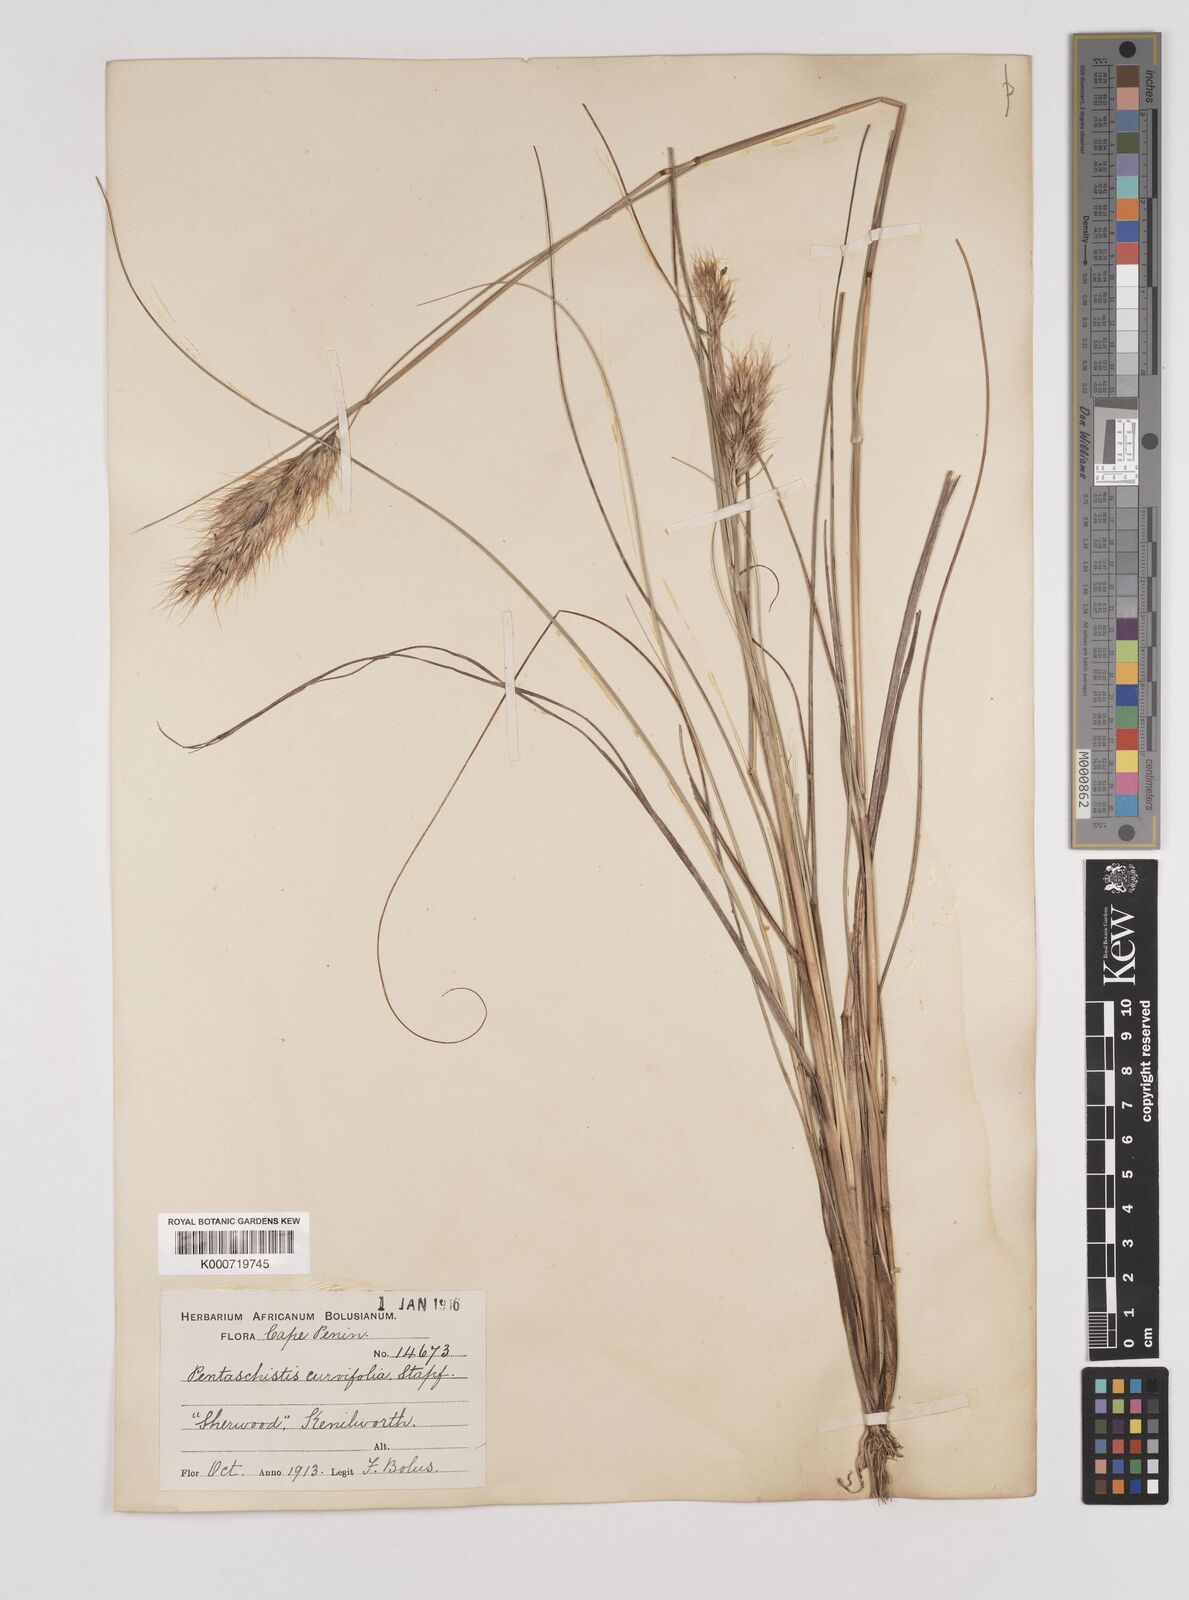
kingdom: Plantae
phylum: Tracheophyta
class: Liliopsida
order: Poales
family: Poaceae
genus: Pentameris
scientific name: Pentameris curvifolia
